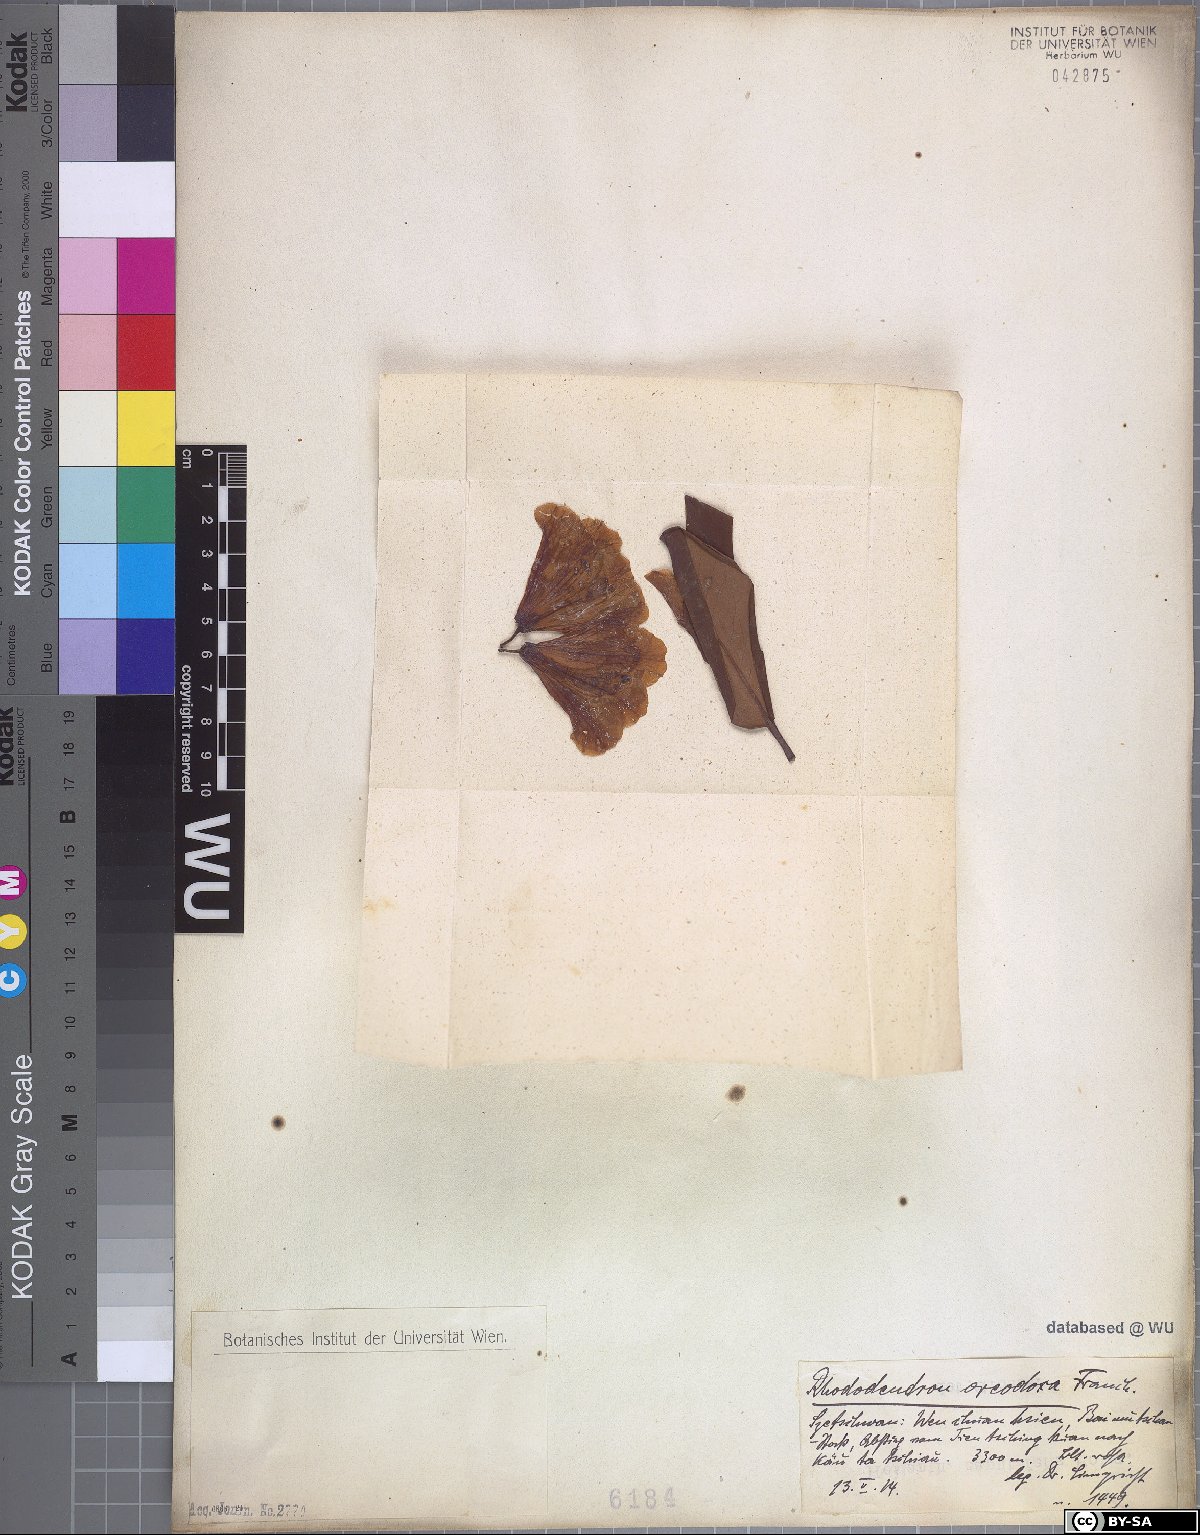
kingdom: Plantae
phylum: Tracheophyta
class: Magnoliopsida
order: Ericales
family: Ericaceae
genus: Rhododendron
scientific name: Rhododendron oreodoxa
